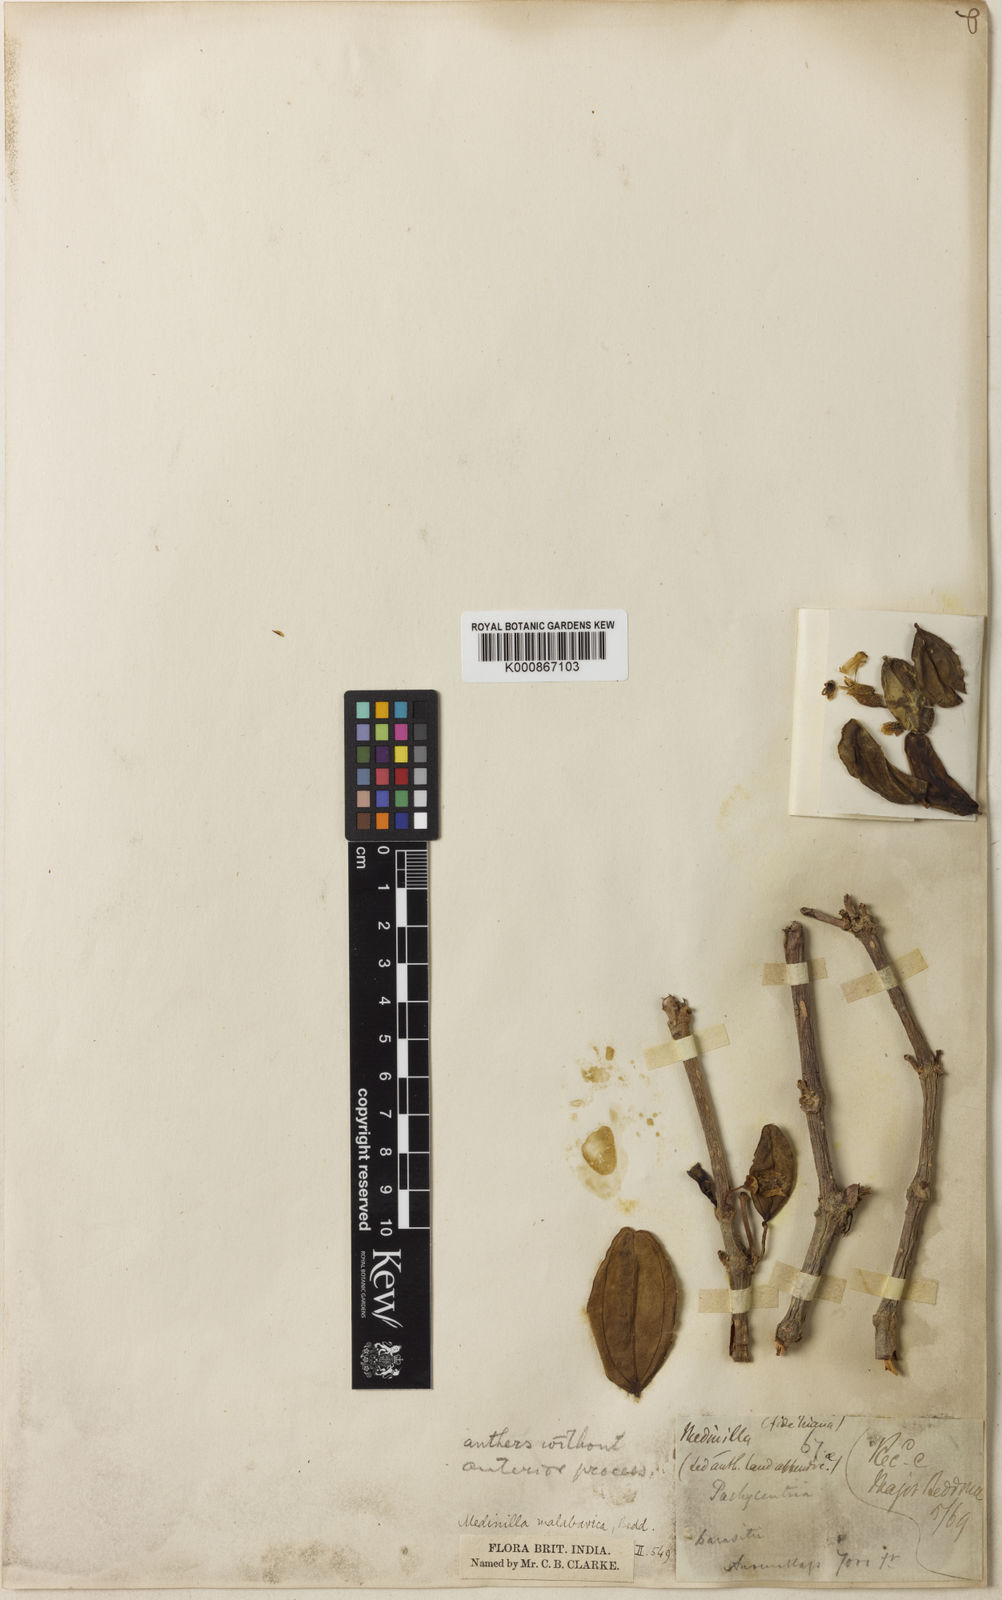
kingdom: Plantae
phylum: Tracheophyta
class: Magnoliopsida
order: Myrtales
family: Melastomataceae
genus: Medinilla
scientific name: Medinilla malabarica
